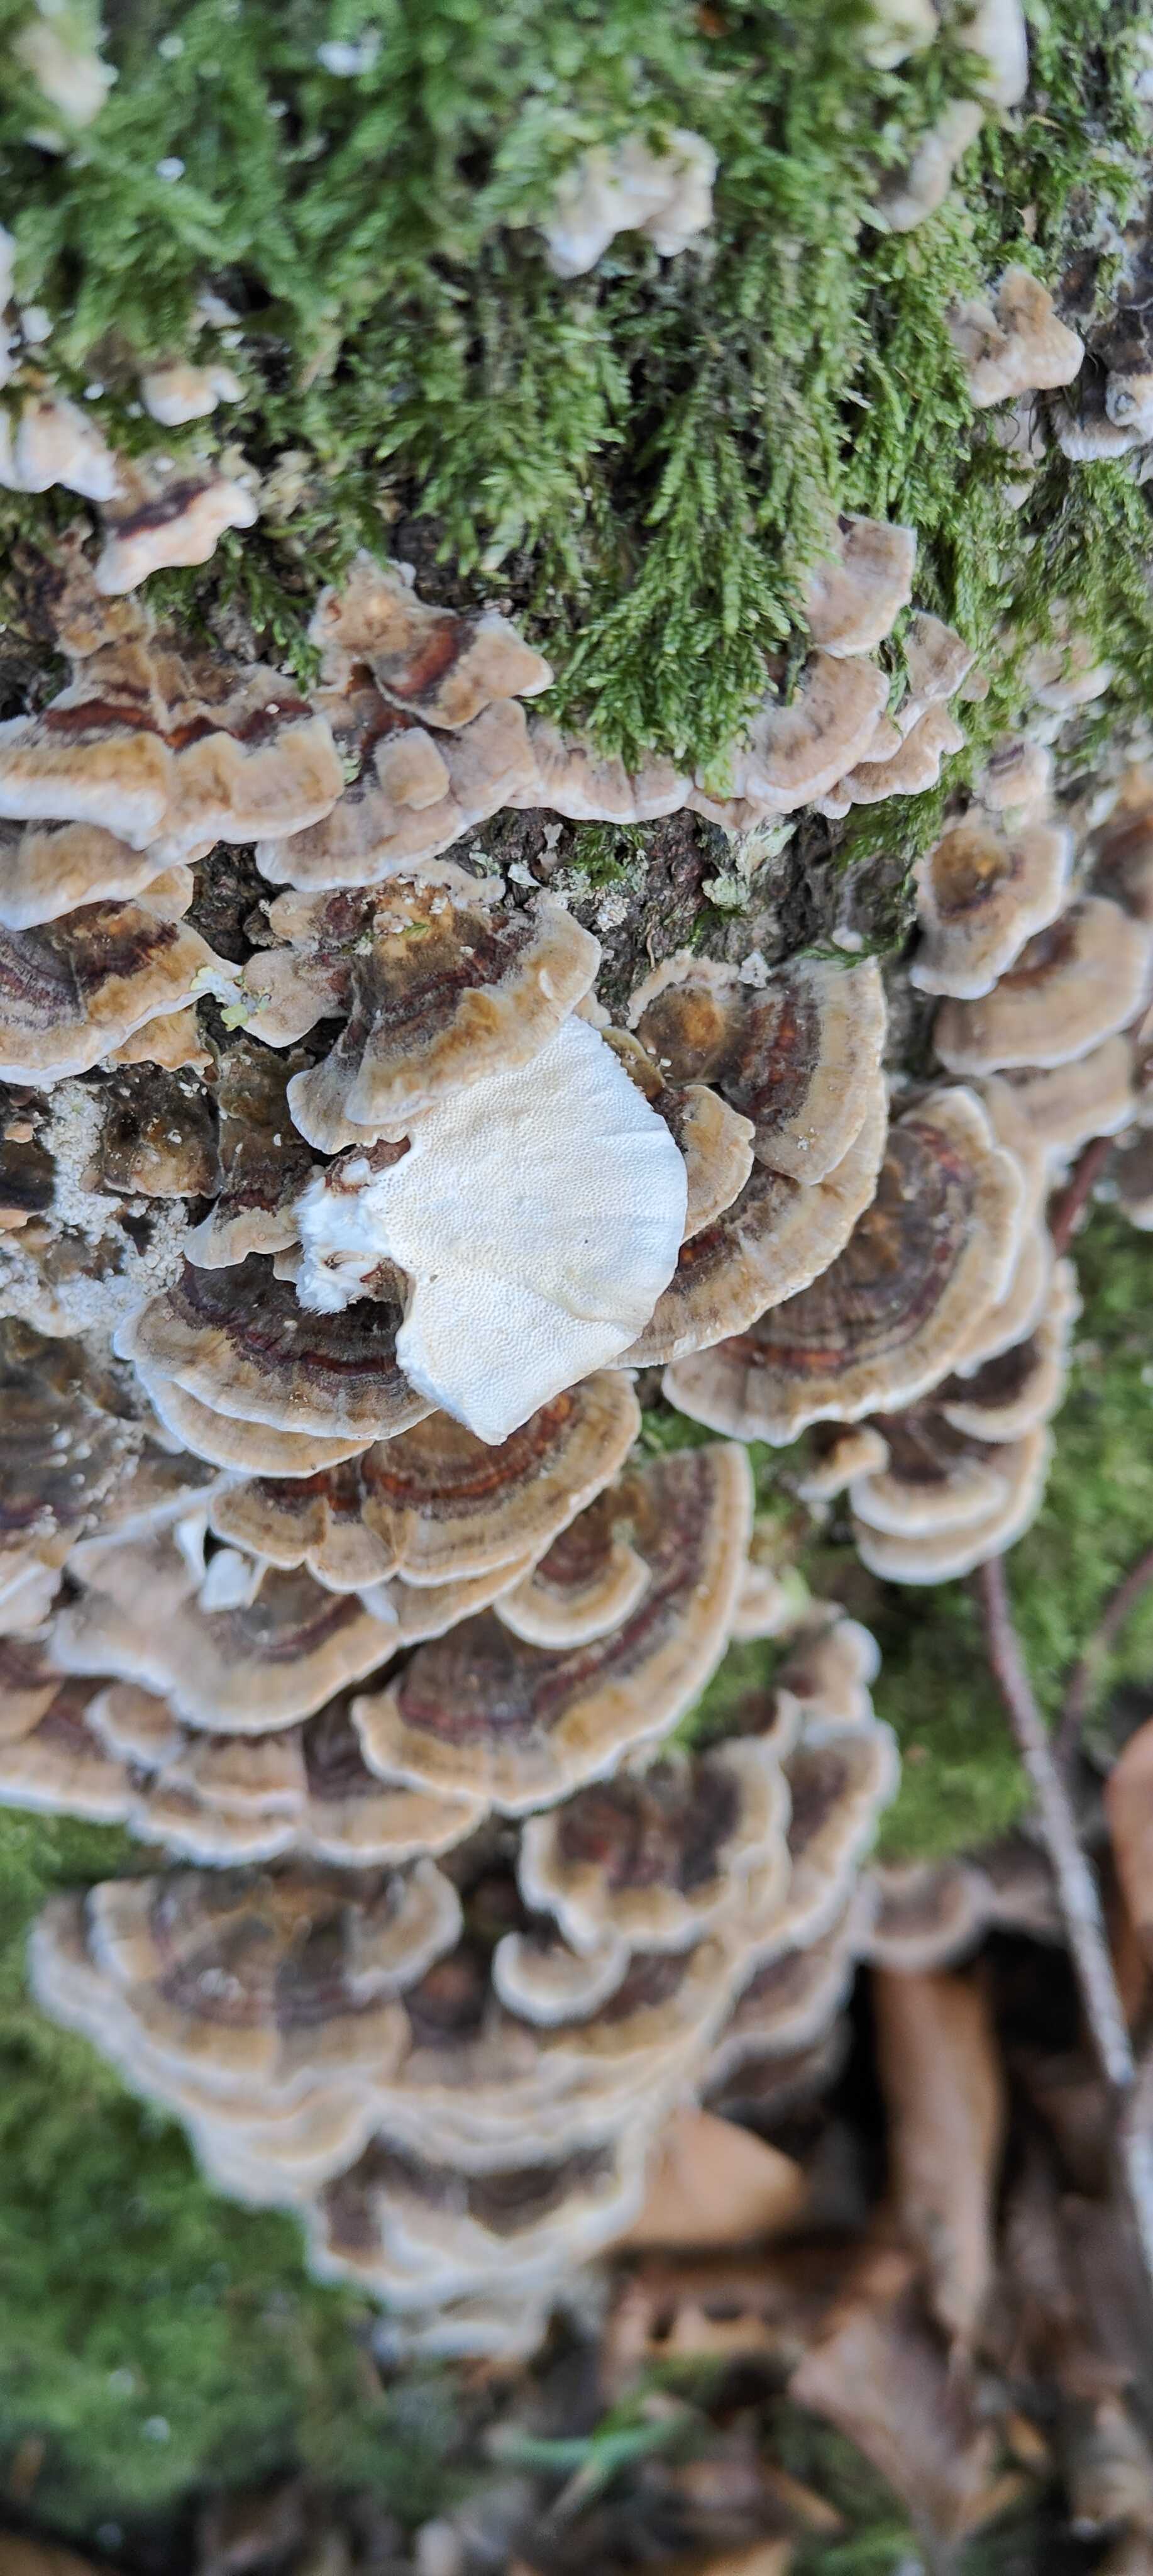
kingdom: Fungi
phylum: Basidiomycota
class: Agaricomycetes
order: Polyporales
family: Polyporaceae
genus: Trametes
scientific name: Trametes versicolor
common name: broget læderporesvamp
